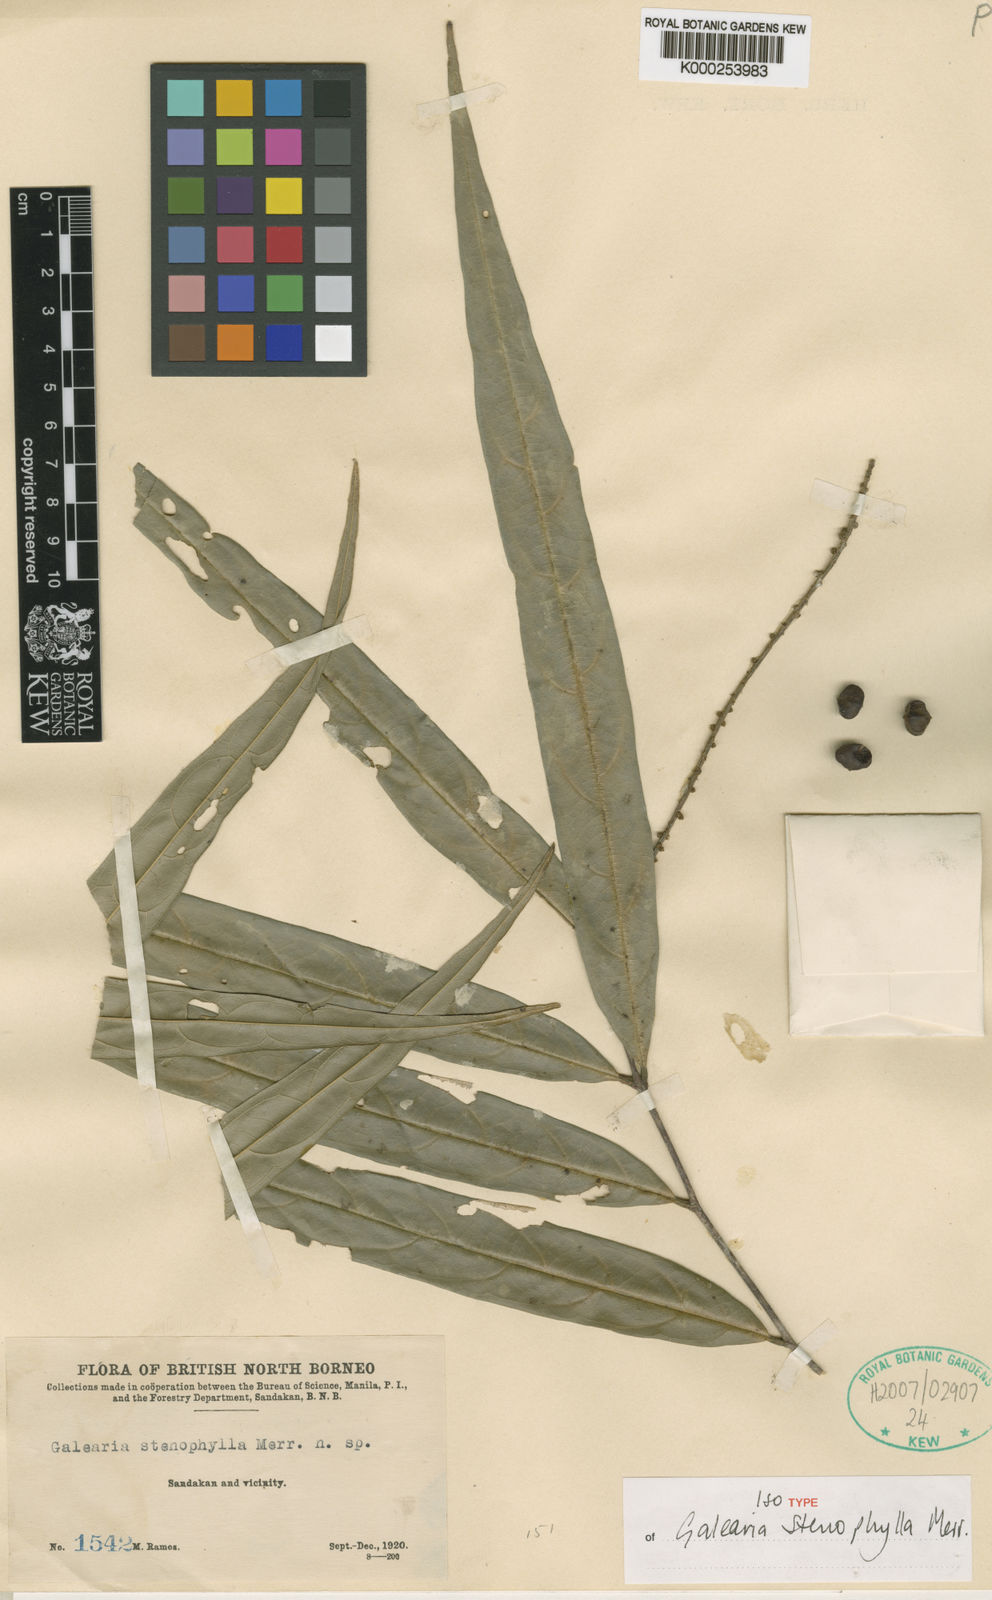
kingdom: Plantae
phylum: Tracheophyta
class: Magnoliopsida
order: Malpighiales
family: Pandaceae
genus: Galearia
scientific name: Galearia fulva
